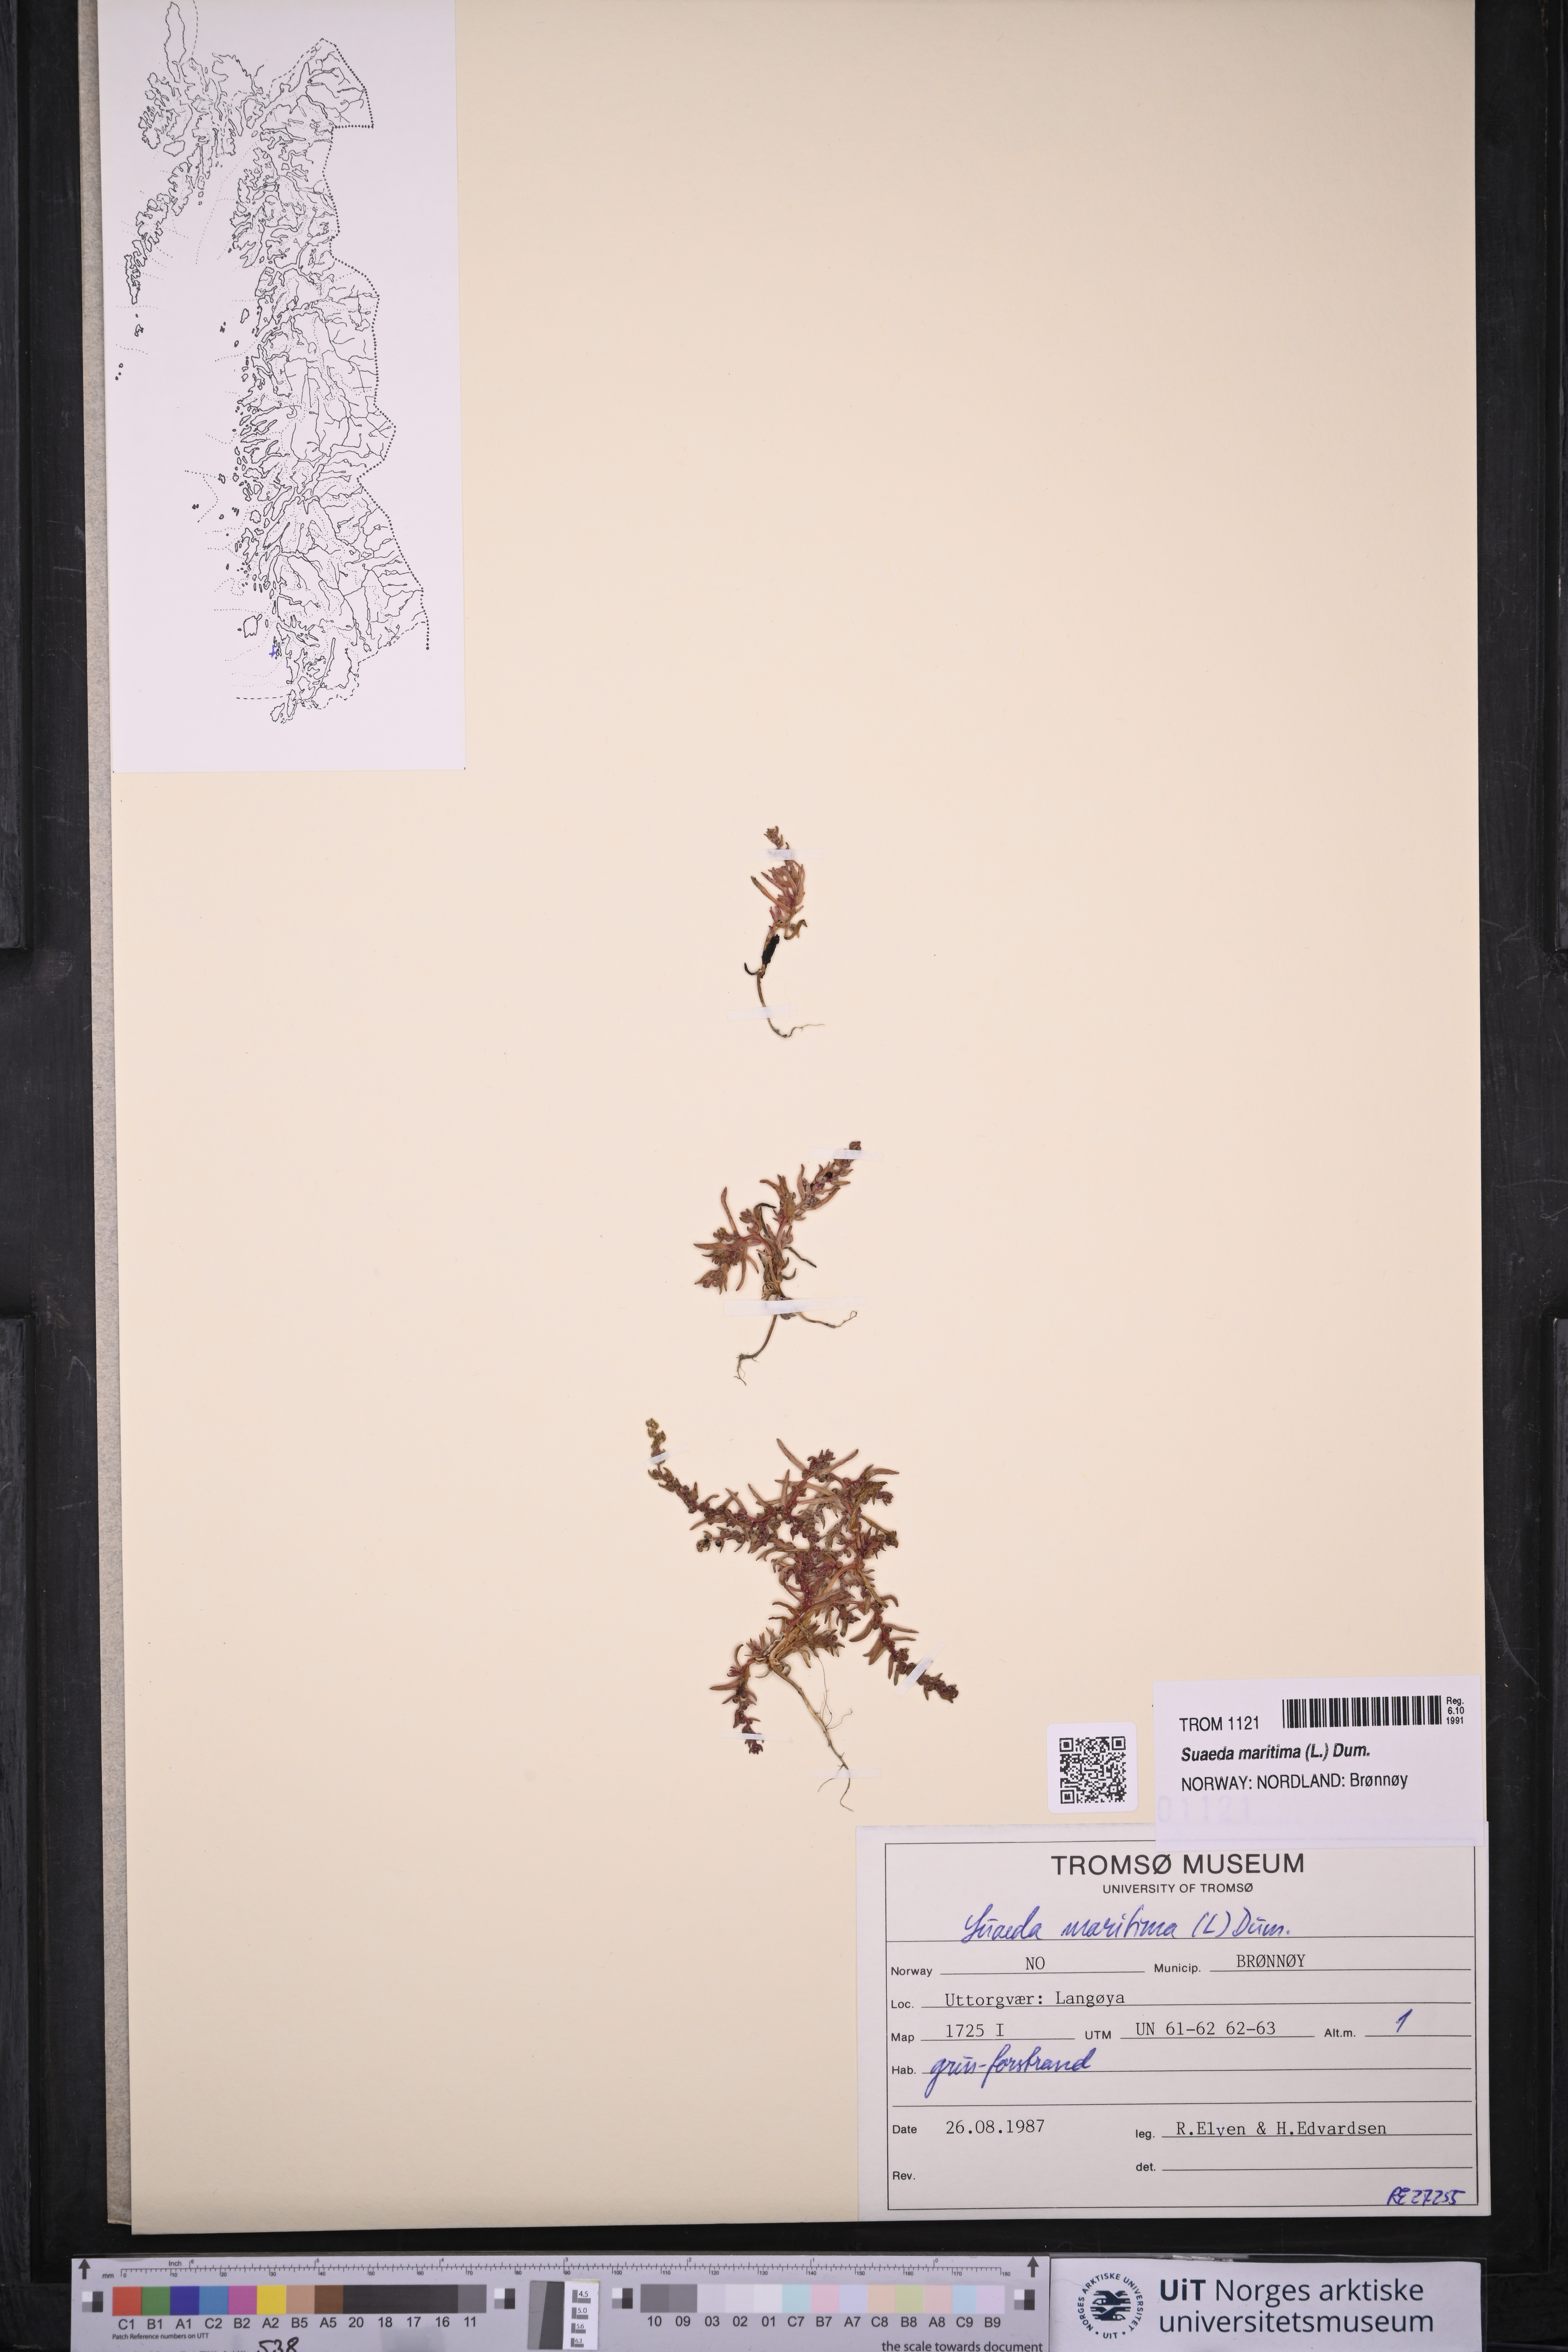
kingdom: Plantae
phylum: Tracheophyta
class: Magnoliopsida
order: Caryophyllales
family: Amaranthaceae
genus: Suaeda
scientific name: Suaeda maritima
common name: Annual sea-blite
